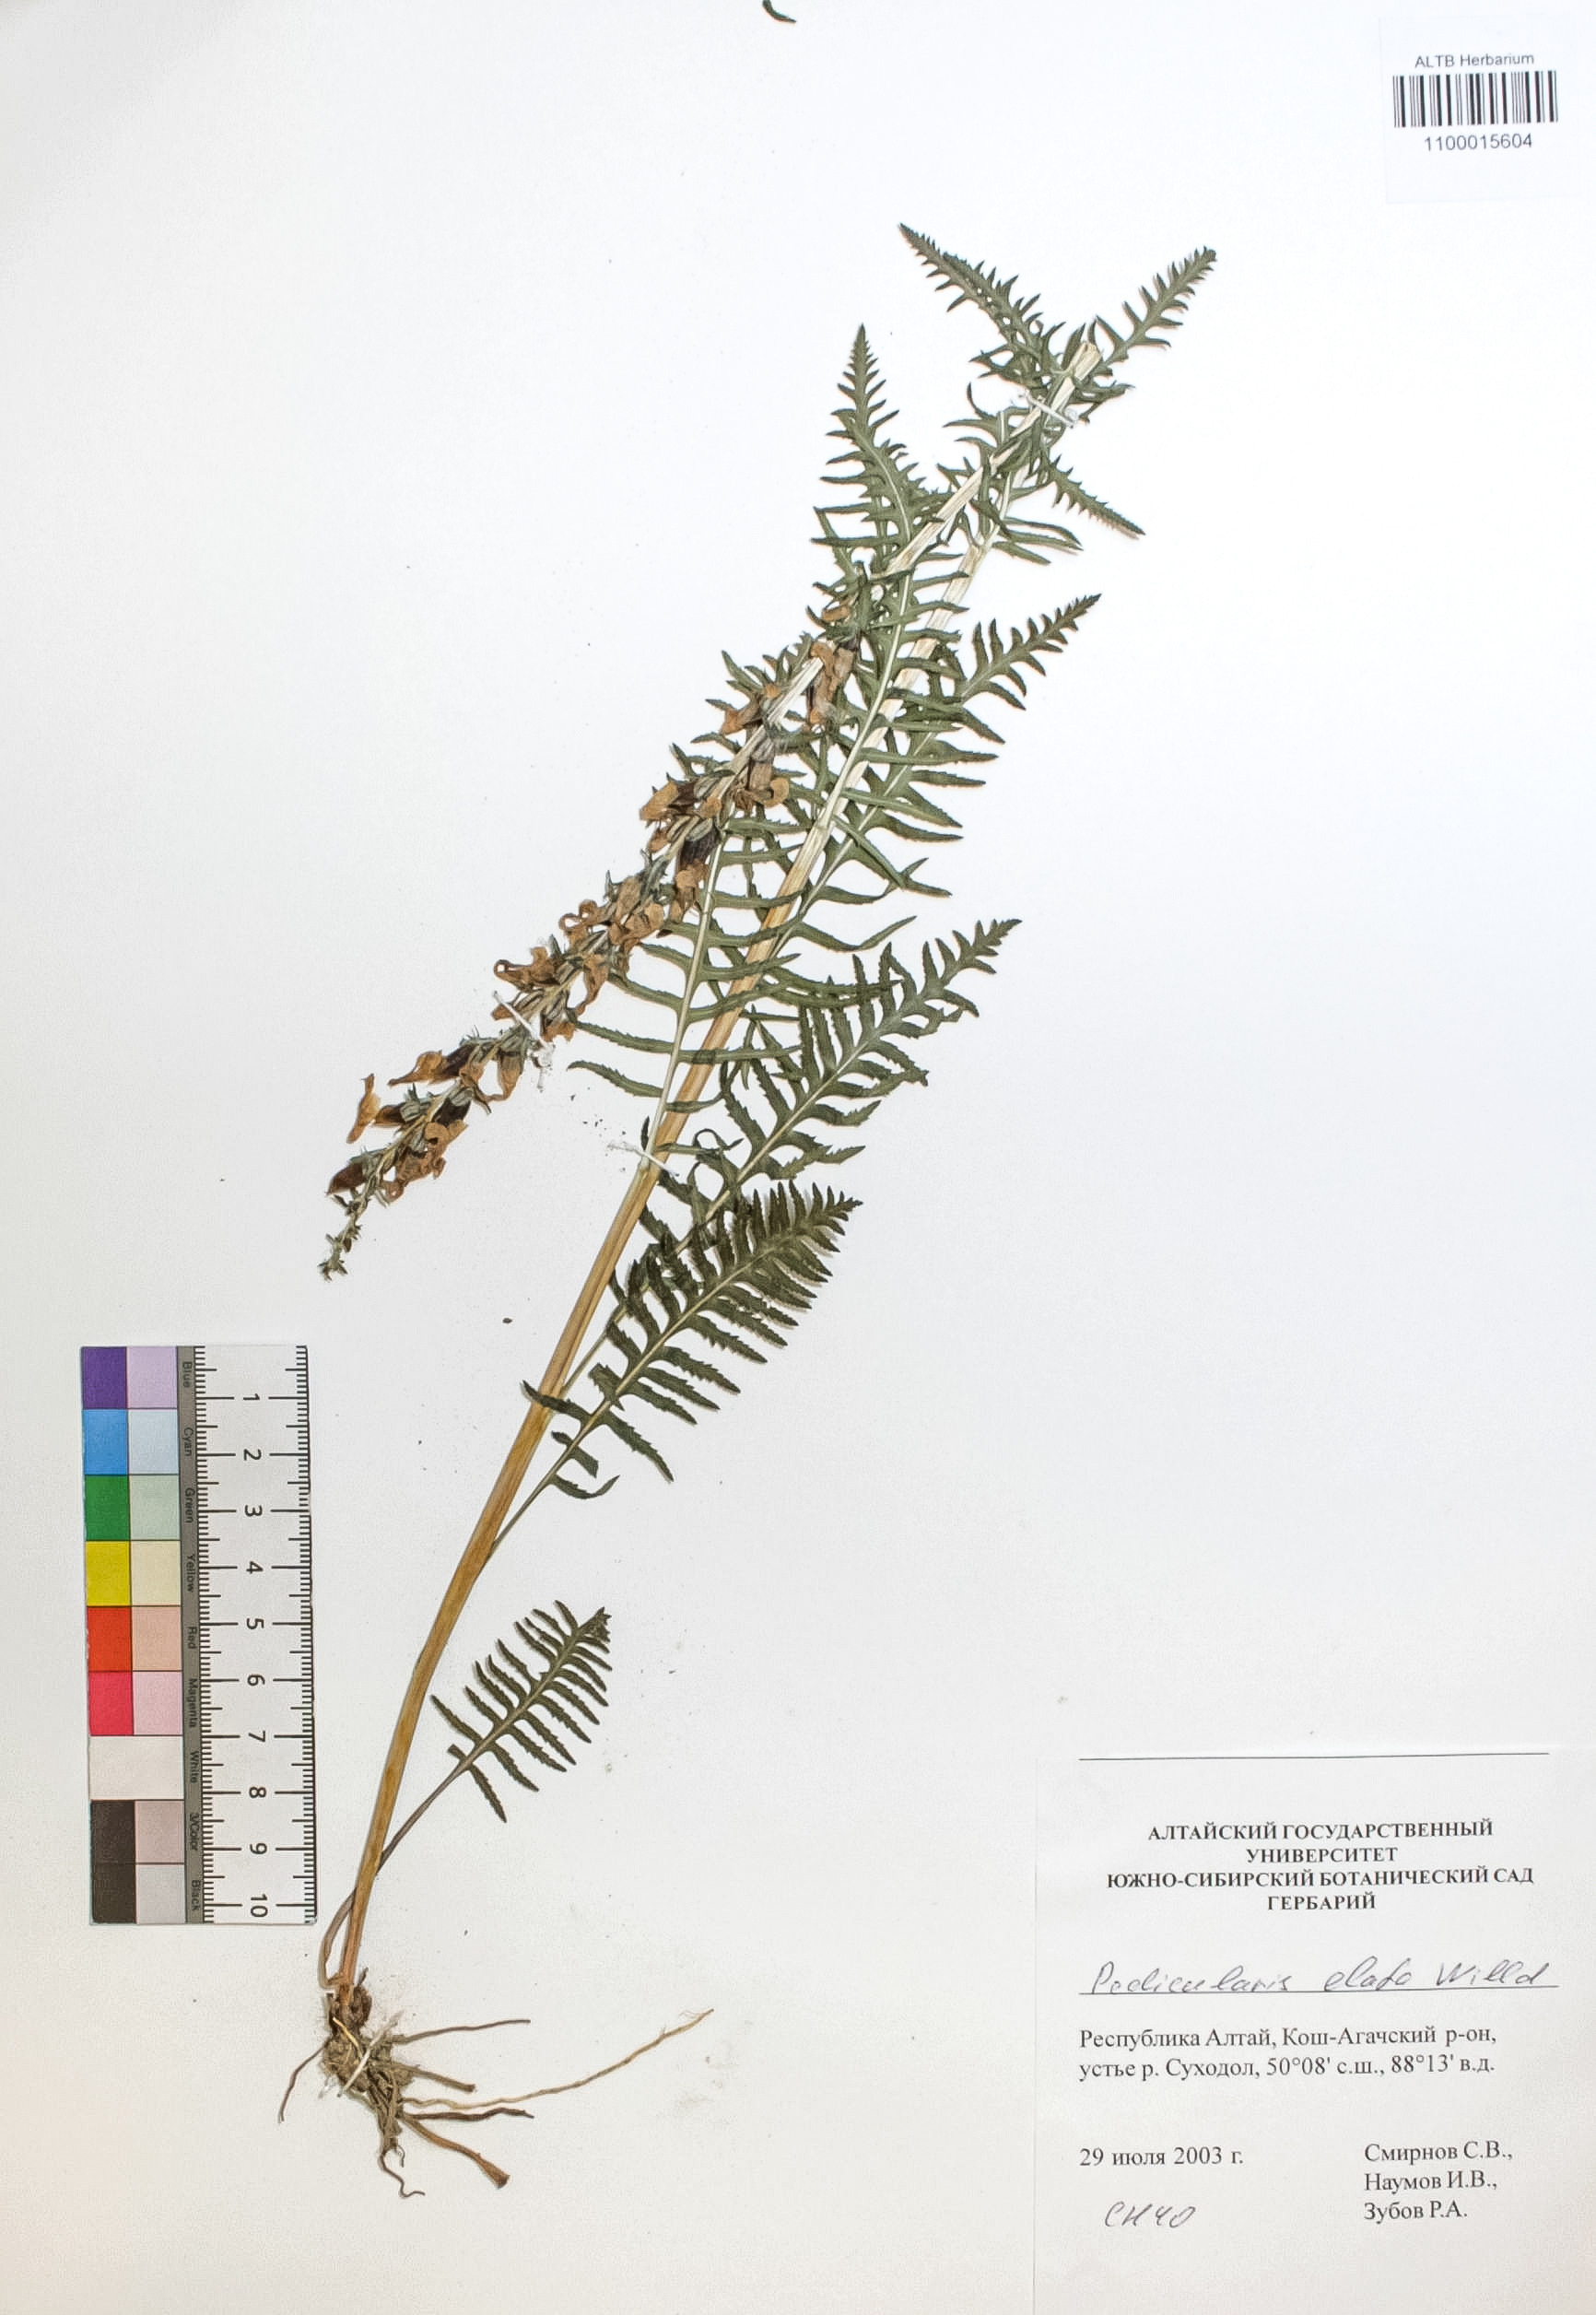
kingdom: Plantae
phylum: Tracheophyta
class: Magnoliopsida
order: Lamiales
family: Orobanchaceae
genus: Pedicularis
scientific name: Pedicularis elata
